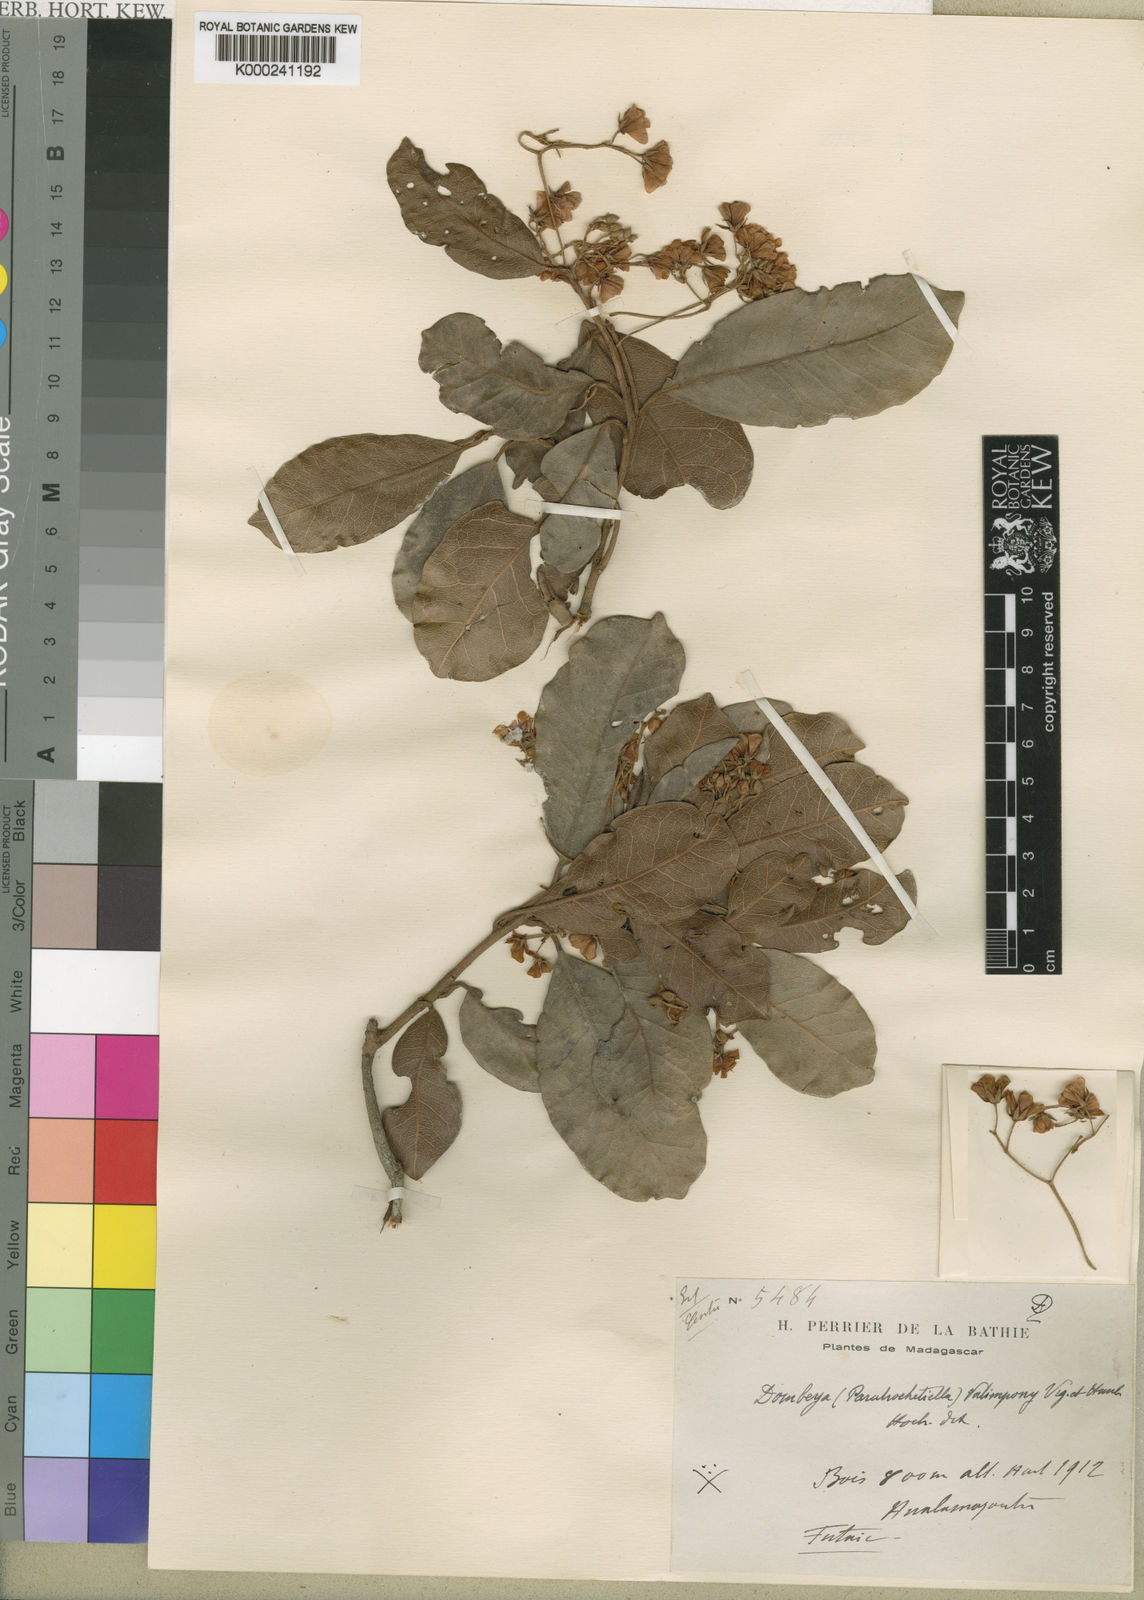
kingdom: Plantae
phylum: Tracheophyta
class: Magnoliopsida
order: Malvales
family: Malvaceae
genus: Dombeya
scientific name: Dombeya laurifolia
